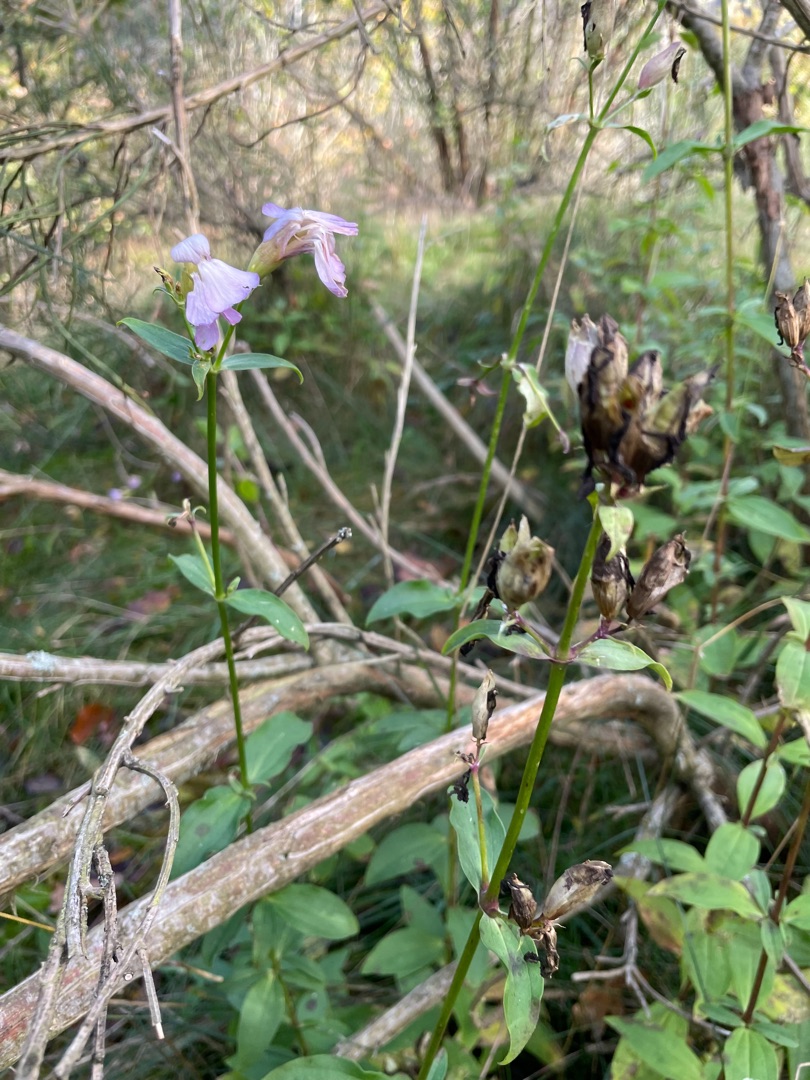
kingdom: Plantae
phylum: Tracheophyta
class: Magnoliopsida
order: Caryophyllales
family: Caryophyllaceae
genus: Saponaria
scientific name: Saponaria officinalis
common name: Sæbeurt
